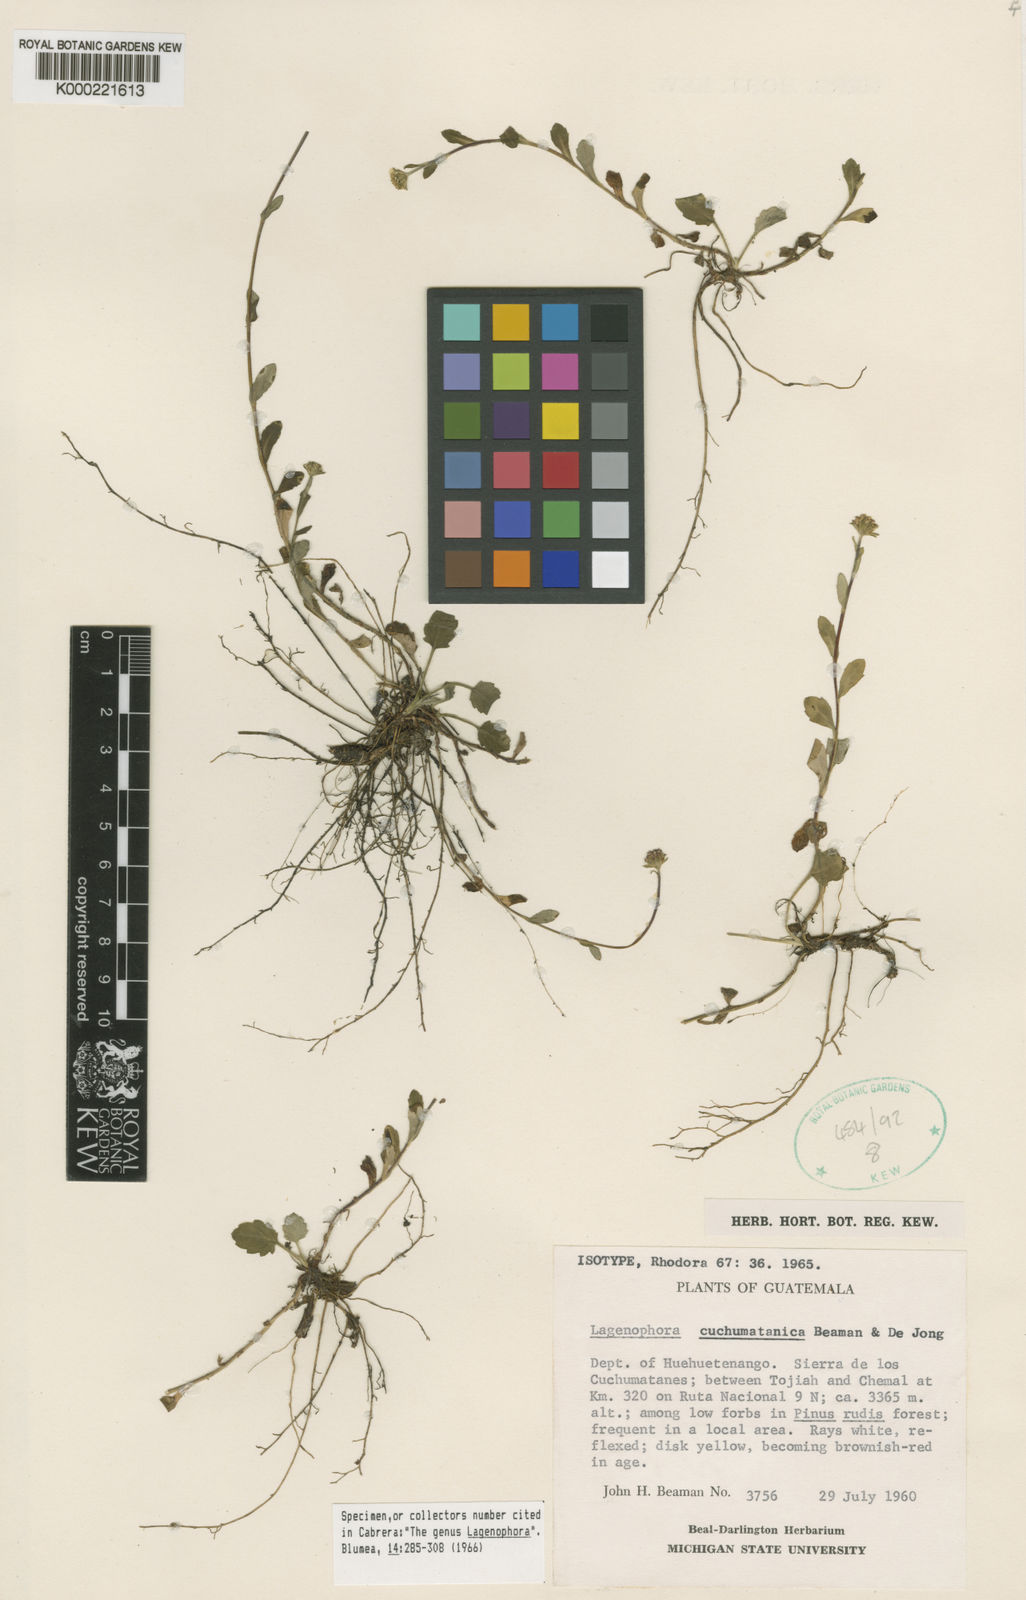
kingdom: Plantae
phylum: Tracheophyta
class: Magnoliopsida
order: Asterales
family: Asteraceae
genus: Talamancaster
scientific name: Talamancaster cuchumatanicus
